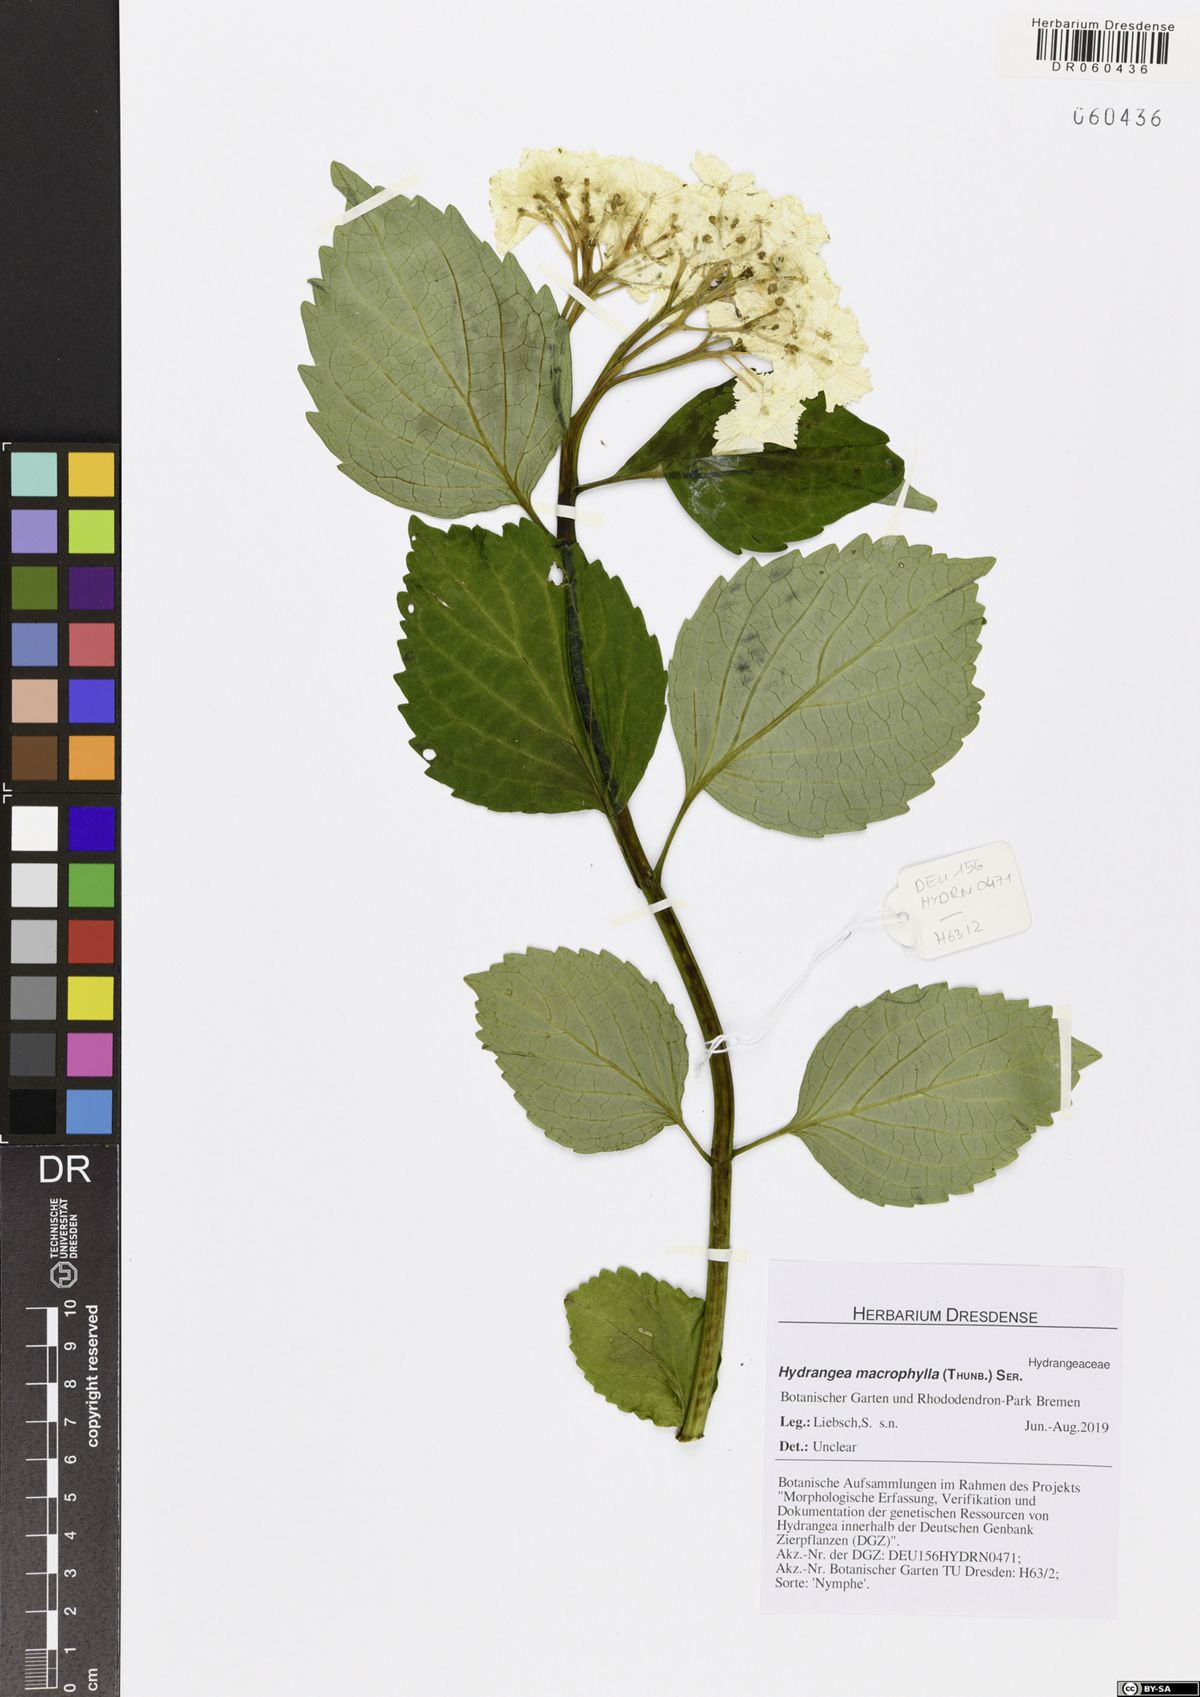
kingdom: Plantae
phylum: Tracheophyta
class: Magnoliopsida
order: Cornales
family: Hydrangeaceae
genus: Hydrangea
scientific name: Hydrangea macrophylla
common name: Hydrangea
